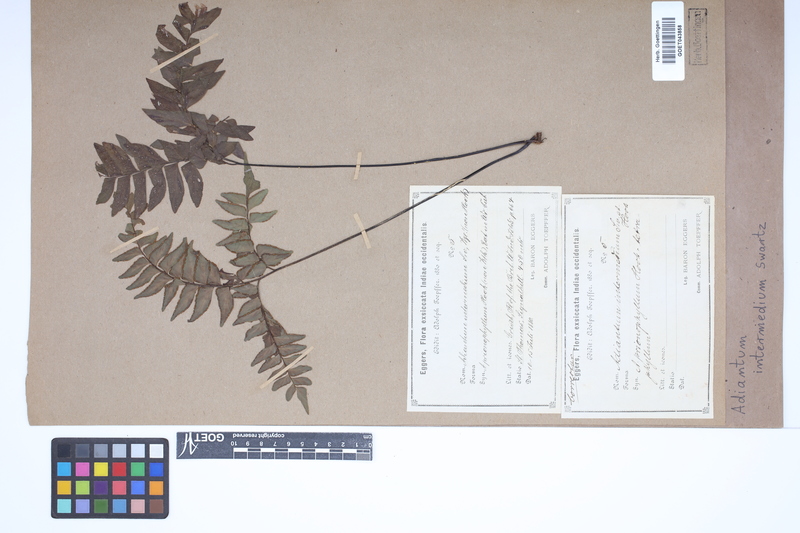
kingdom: Plantae
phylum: Tracheophyta
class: Polypodiopsida
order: Polypodiales
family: Pteridaceae
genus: Adiantum
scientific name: Adiantum intermedium
